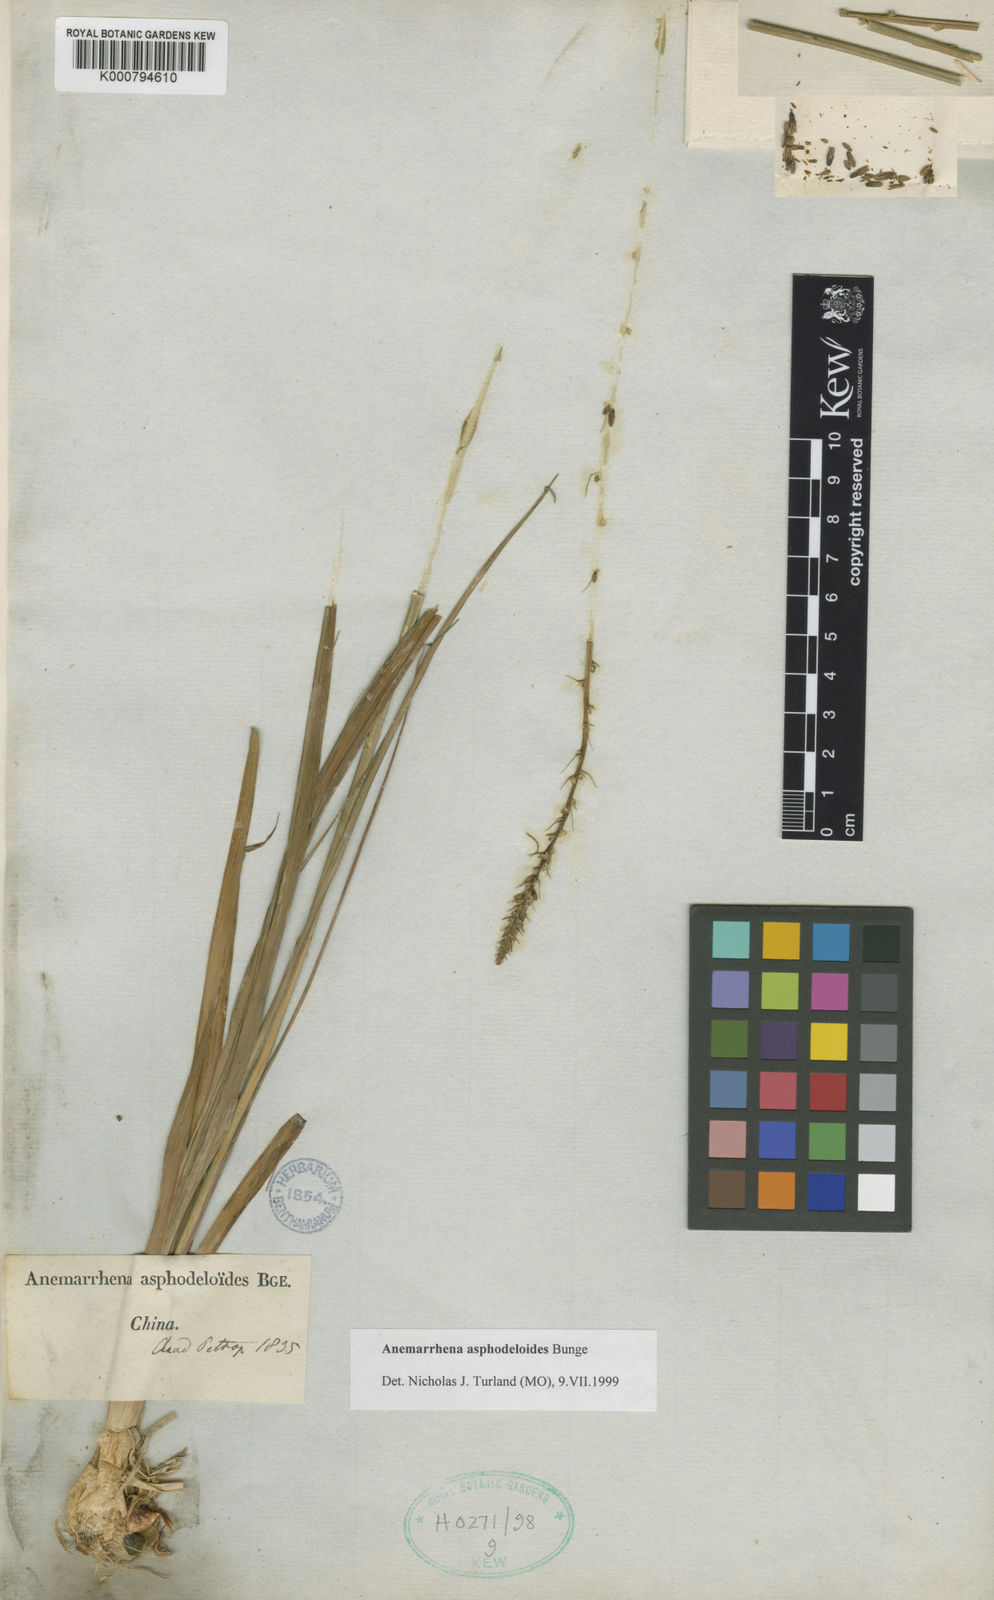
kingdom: Plantae
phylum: Tracheophyta
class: Liliopsida
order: Asparagales
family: Asparagaceae
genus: Anemarrhena
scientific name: Anemarrhena asphodeloides
